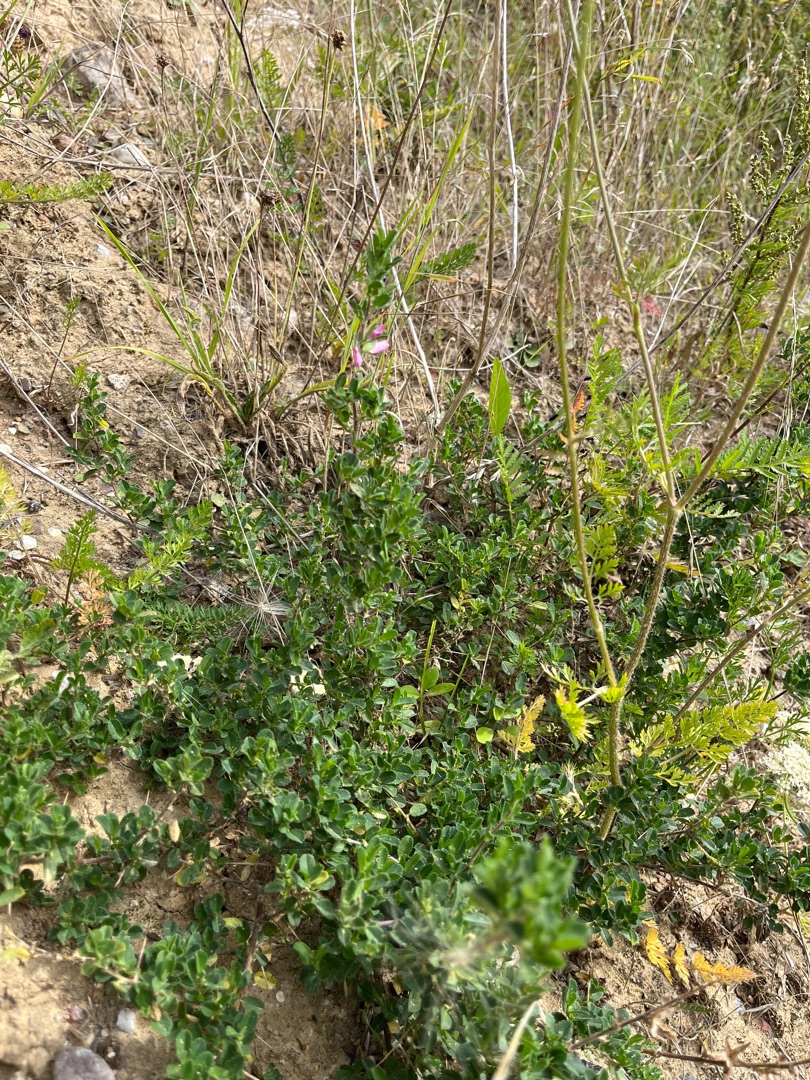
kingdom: Plantae
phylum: Tracheophyta
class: Magnoliopsida
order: Fabales
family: Fabaceae
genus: Ononis
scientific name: Ononis spinosa
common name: Mark-krageklo
